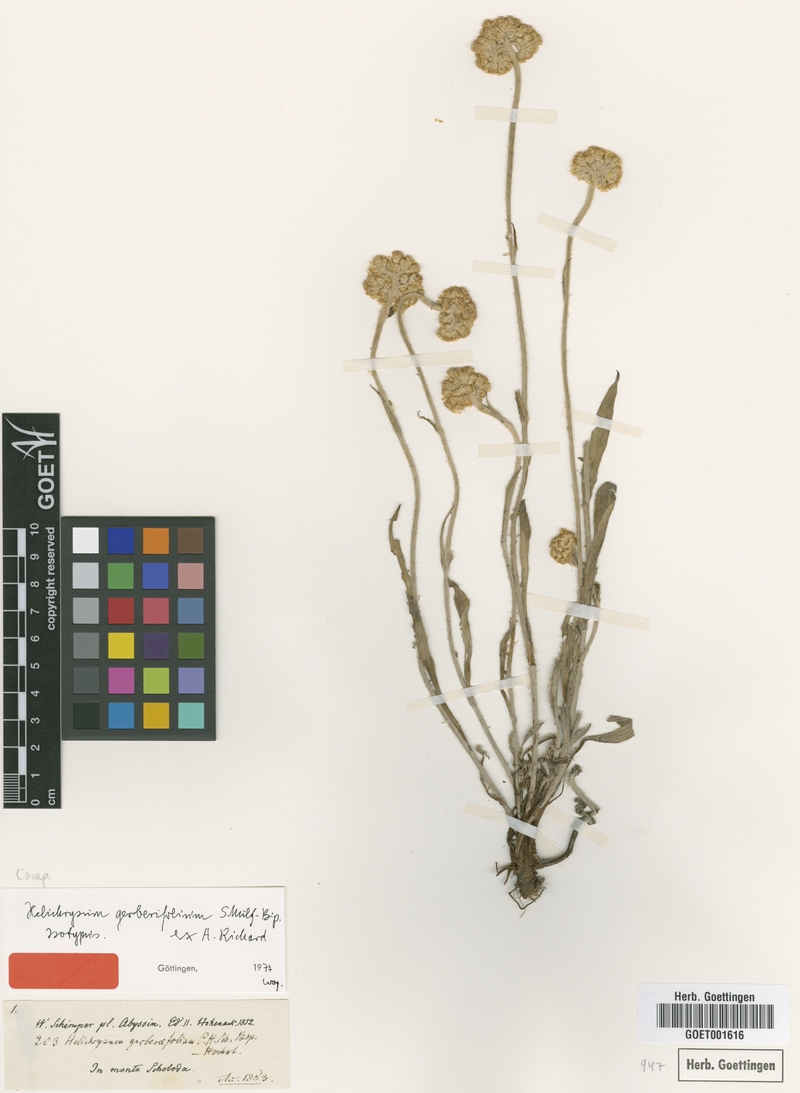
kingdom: Plantae
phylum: Tracheophyta
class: Magnoliopsida
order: Asterales
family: Asteraceae
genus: Helichrysum
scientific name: Helichrysum nudifolium
